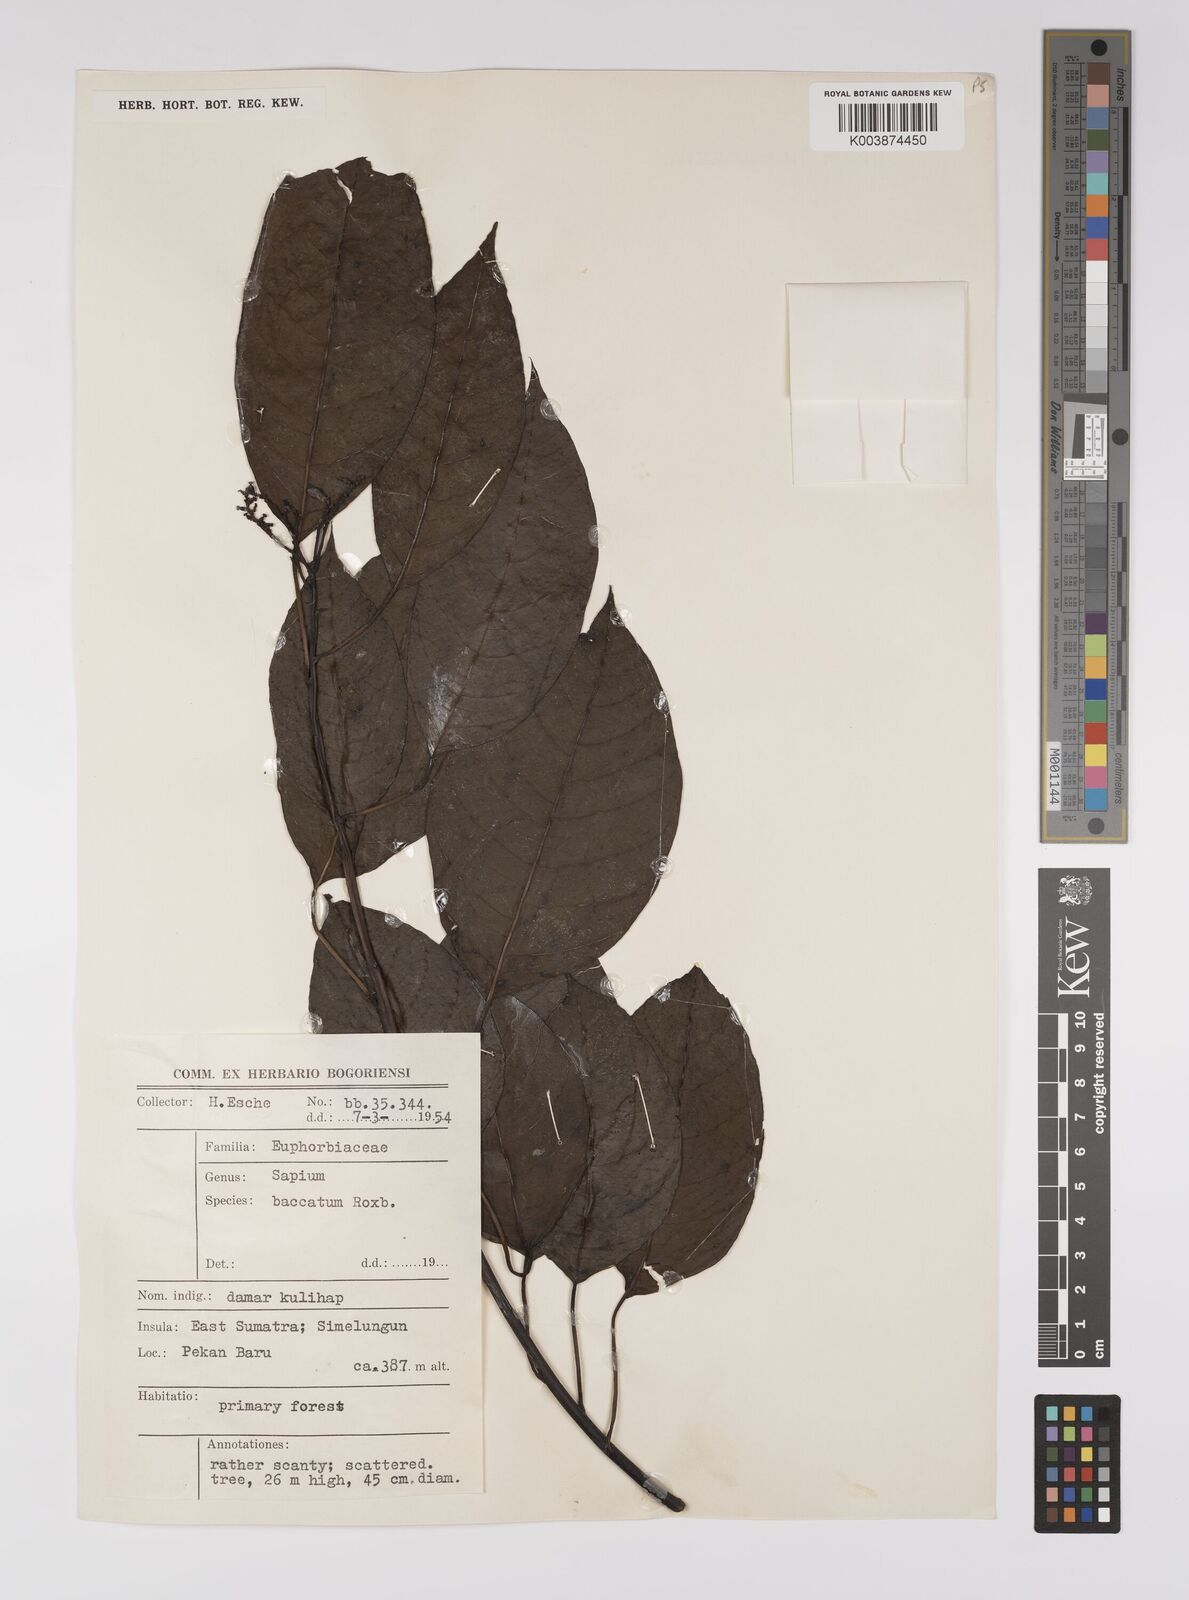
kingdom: Plantae
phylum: Tracheophyta
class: Magnoliopsida
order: Malpighiales
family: Euphorbiaceae
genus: Balakata
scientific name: Balakata baccata
